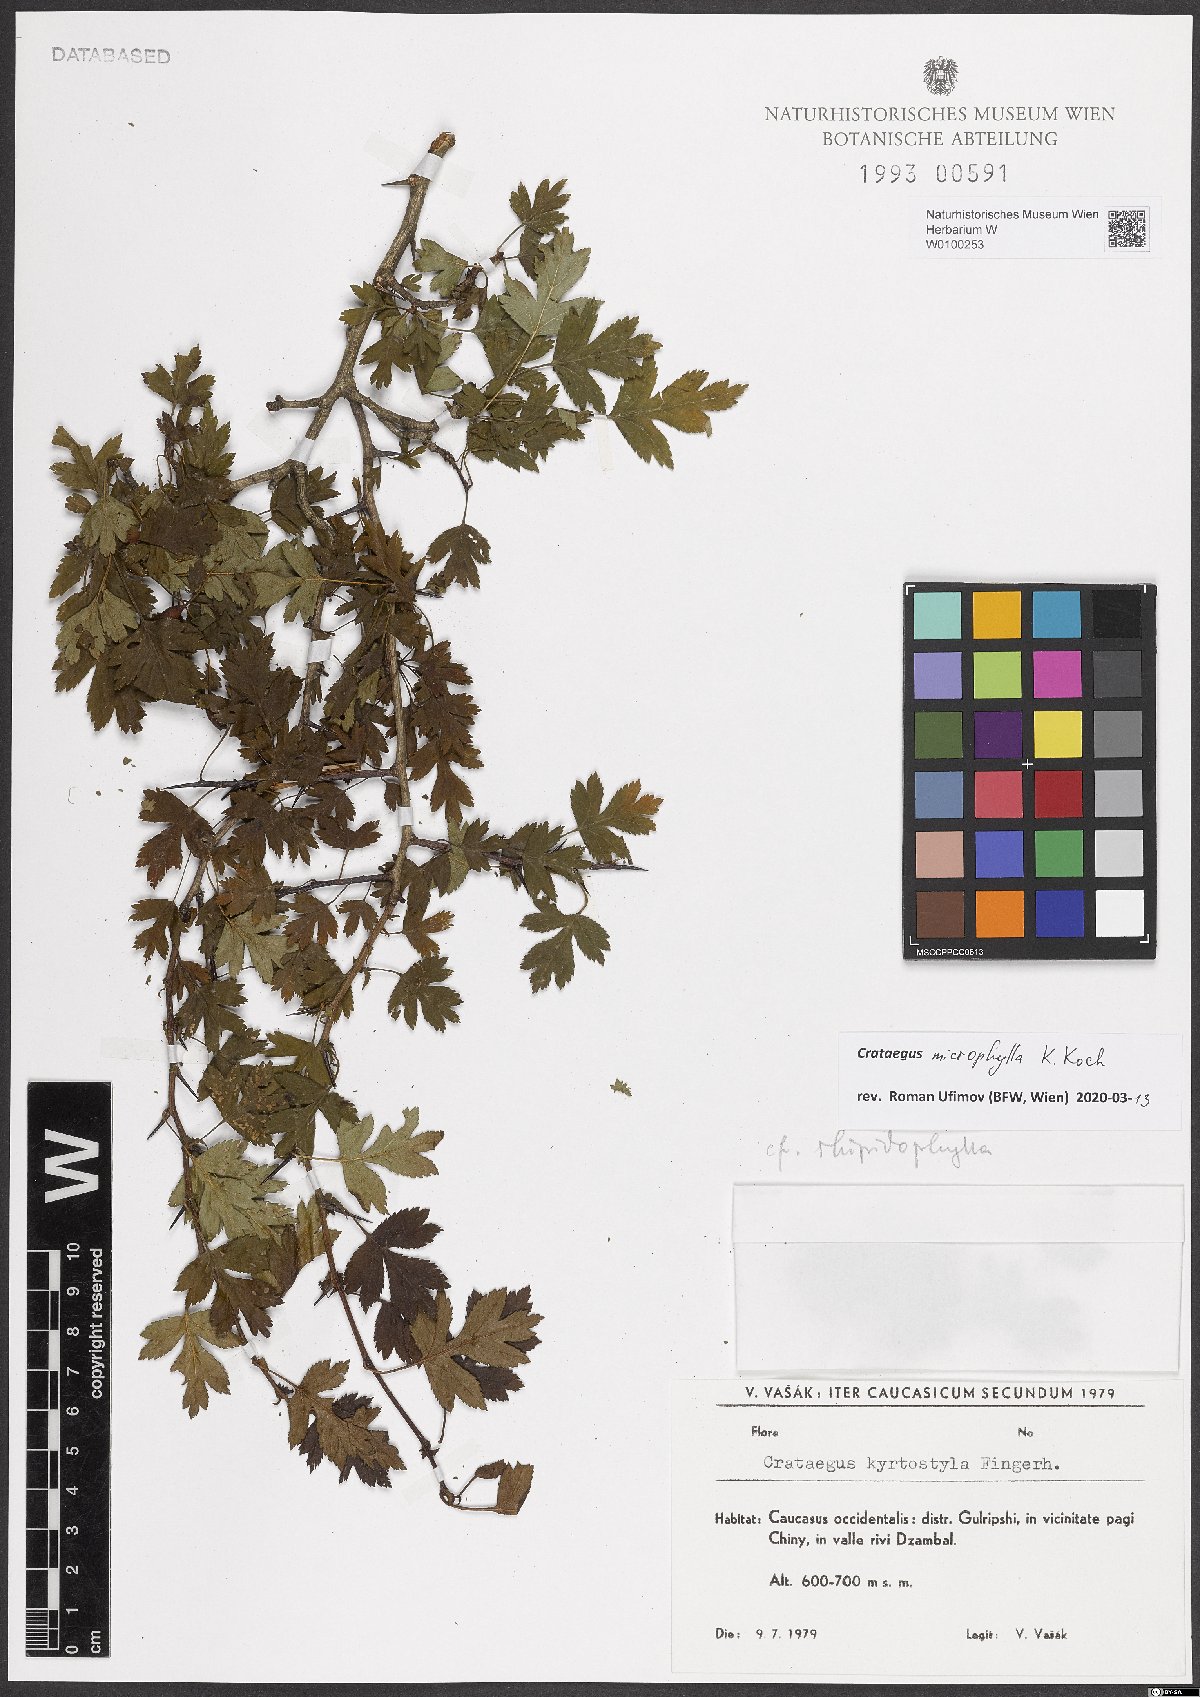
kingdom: Plantae
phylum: Tracheophyta
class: Magnoliopsida
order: Rosales
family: Rosaceae
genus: Crataegus
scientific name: Crataegus microphylla
